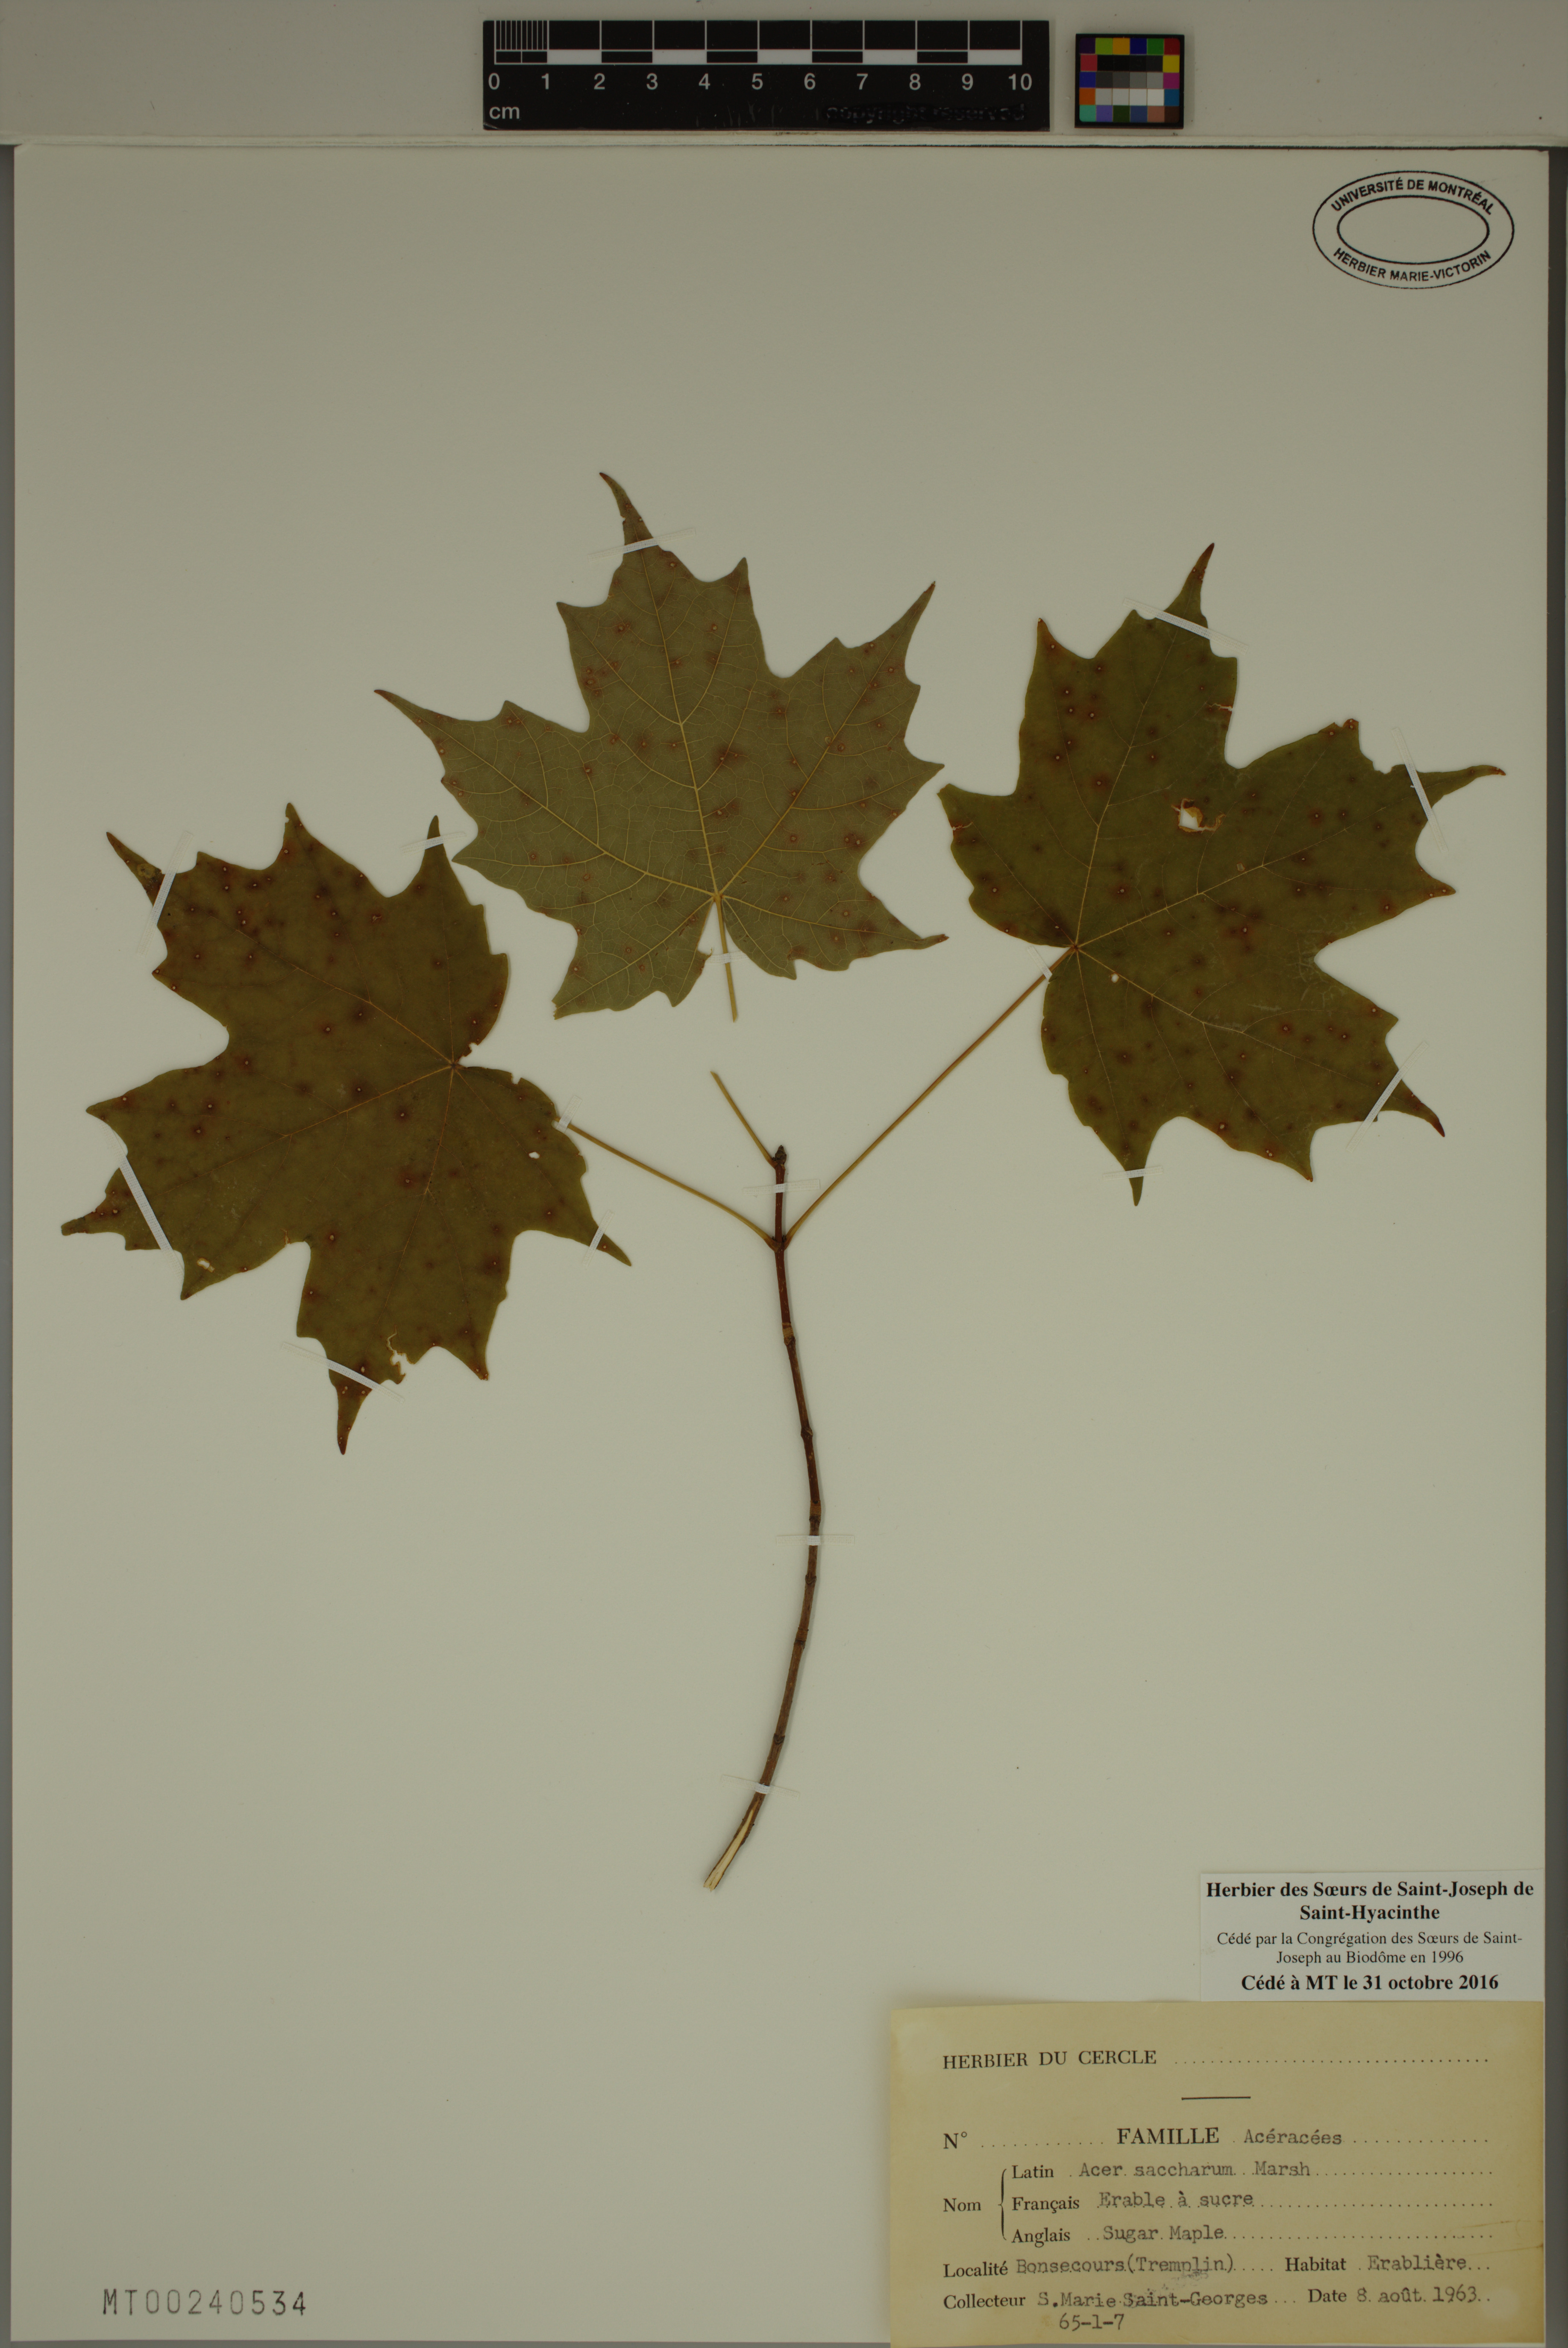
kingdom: Plantae
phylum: Tracheophyta
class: Magnoliopsida
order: Sapindales
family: Sapindaceae
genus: Acer
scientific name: Acer saccharum
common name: Sugar maple
